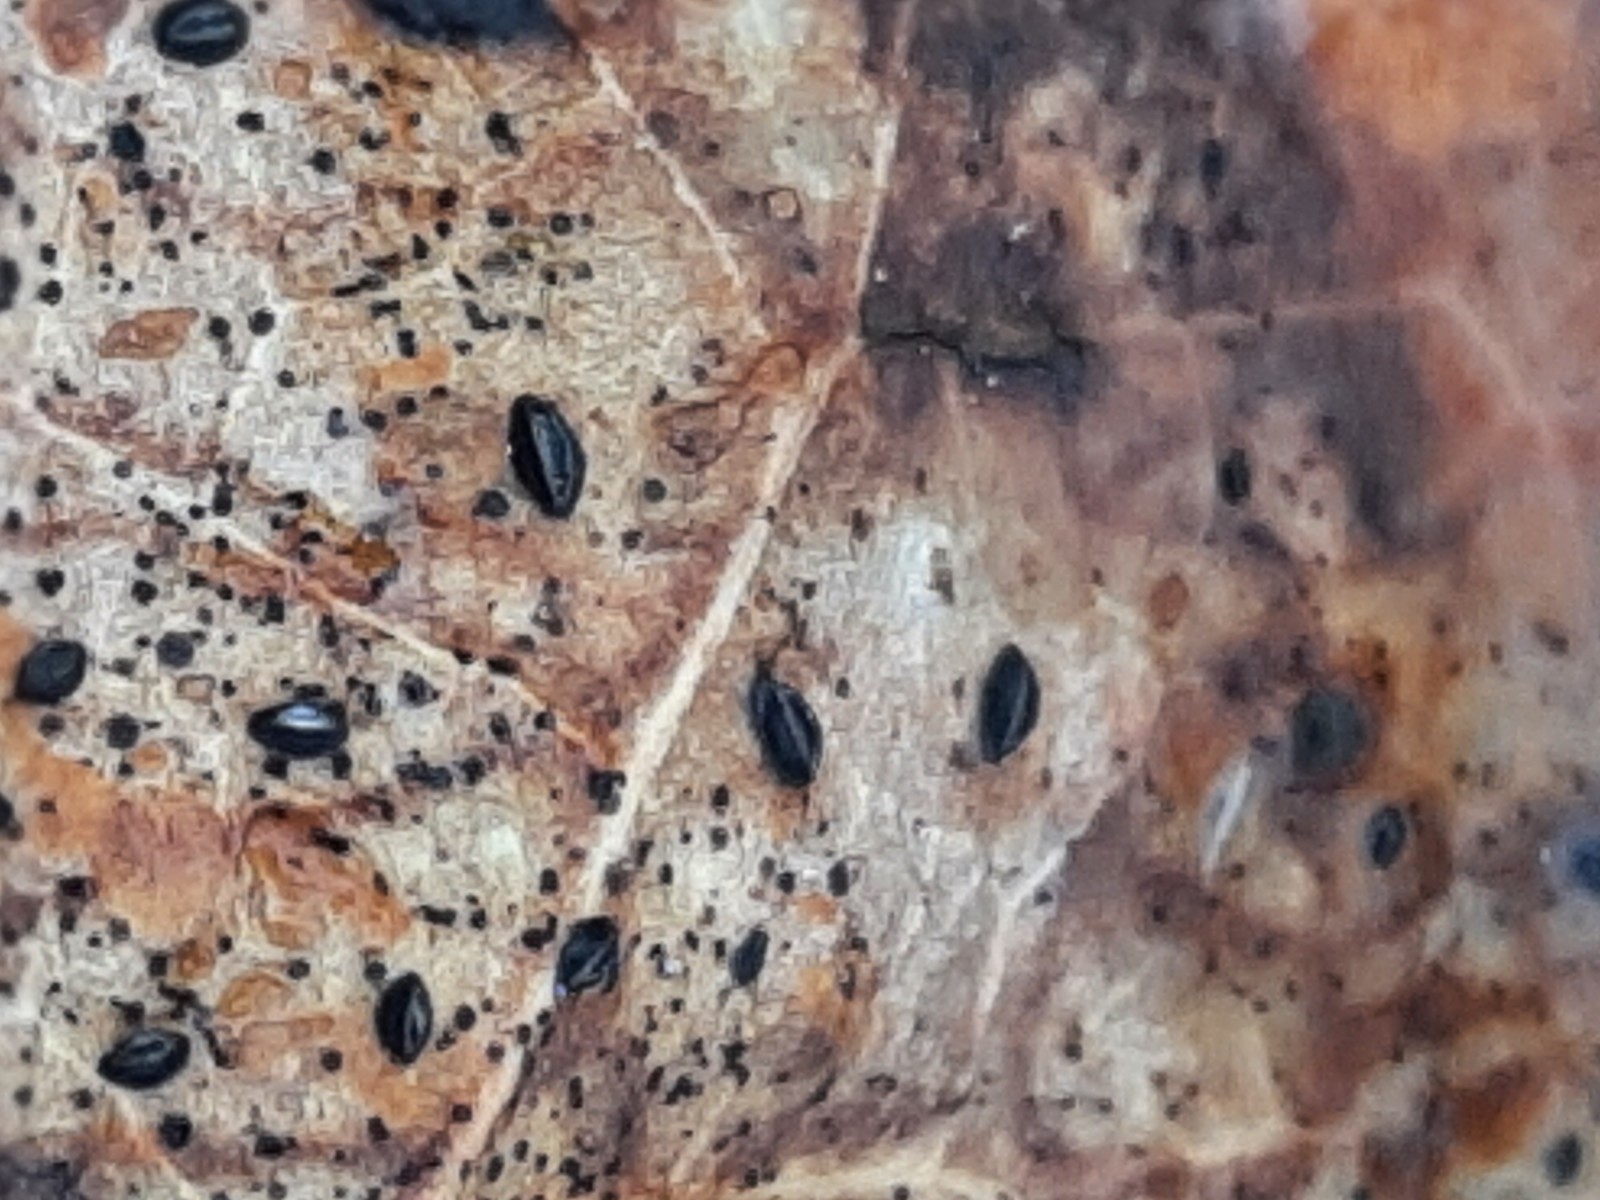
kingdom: Fungi
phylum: Ascomycota
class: Leotiomycetes
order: Rhytismatales
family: Rhytismataceae
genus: Hypoderma
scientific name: Hypoderma hederae
